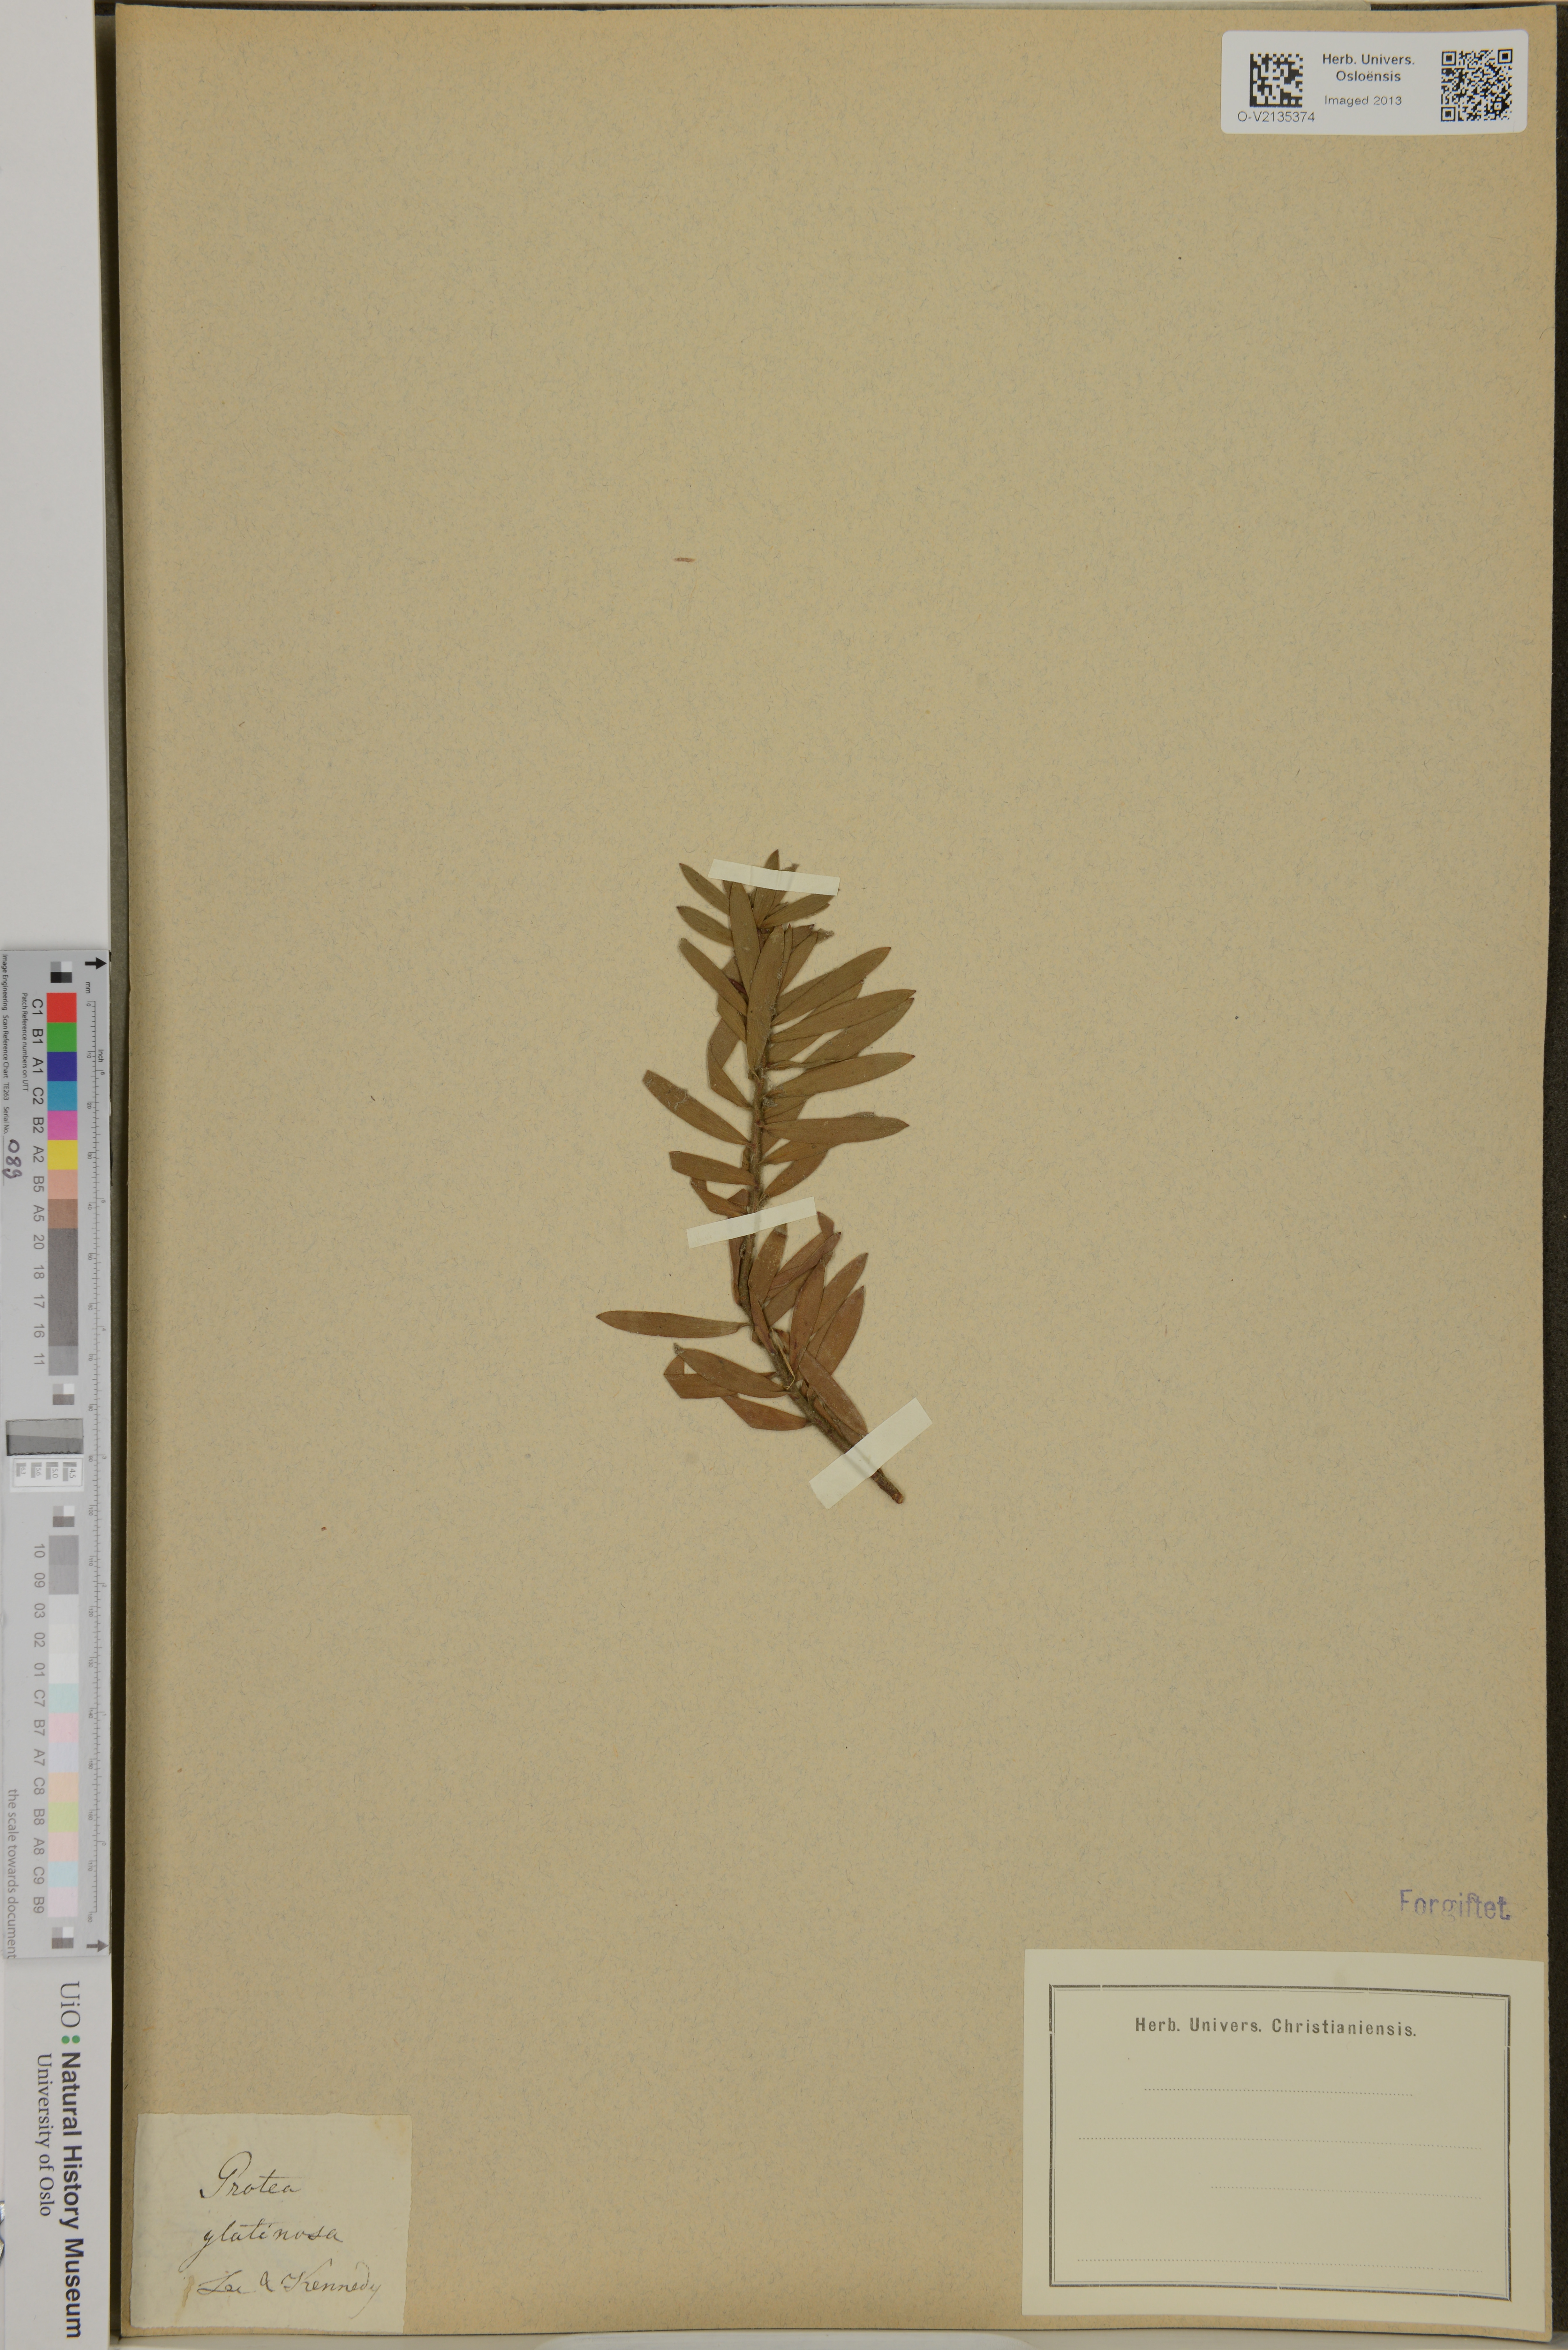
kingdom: Plantae
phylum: Tracheophyta
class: Magnoliopsida
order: Proteales
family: Proteaceae
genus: Leucadendron
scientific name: Leucadendron glutinosum
